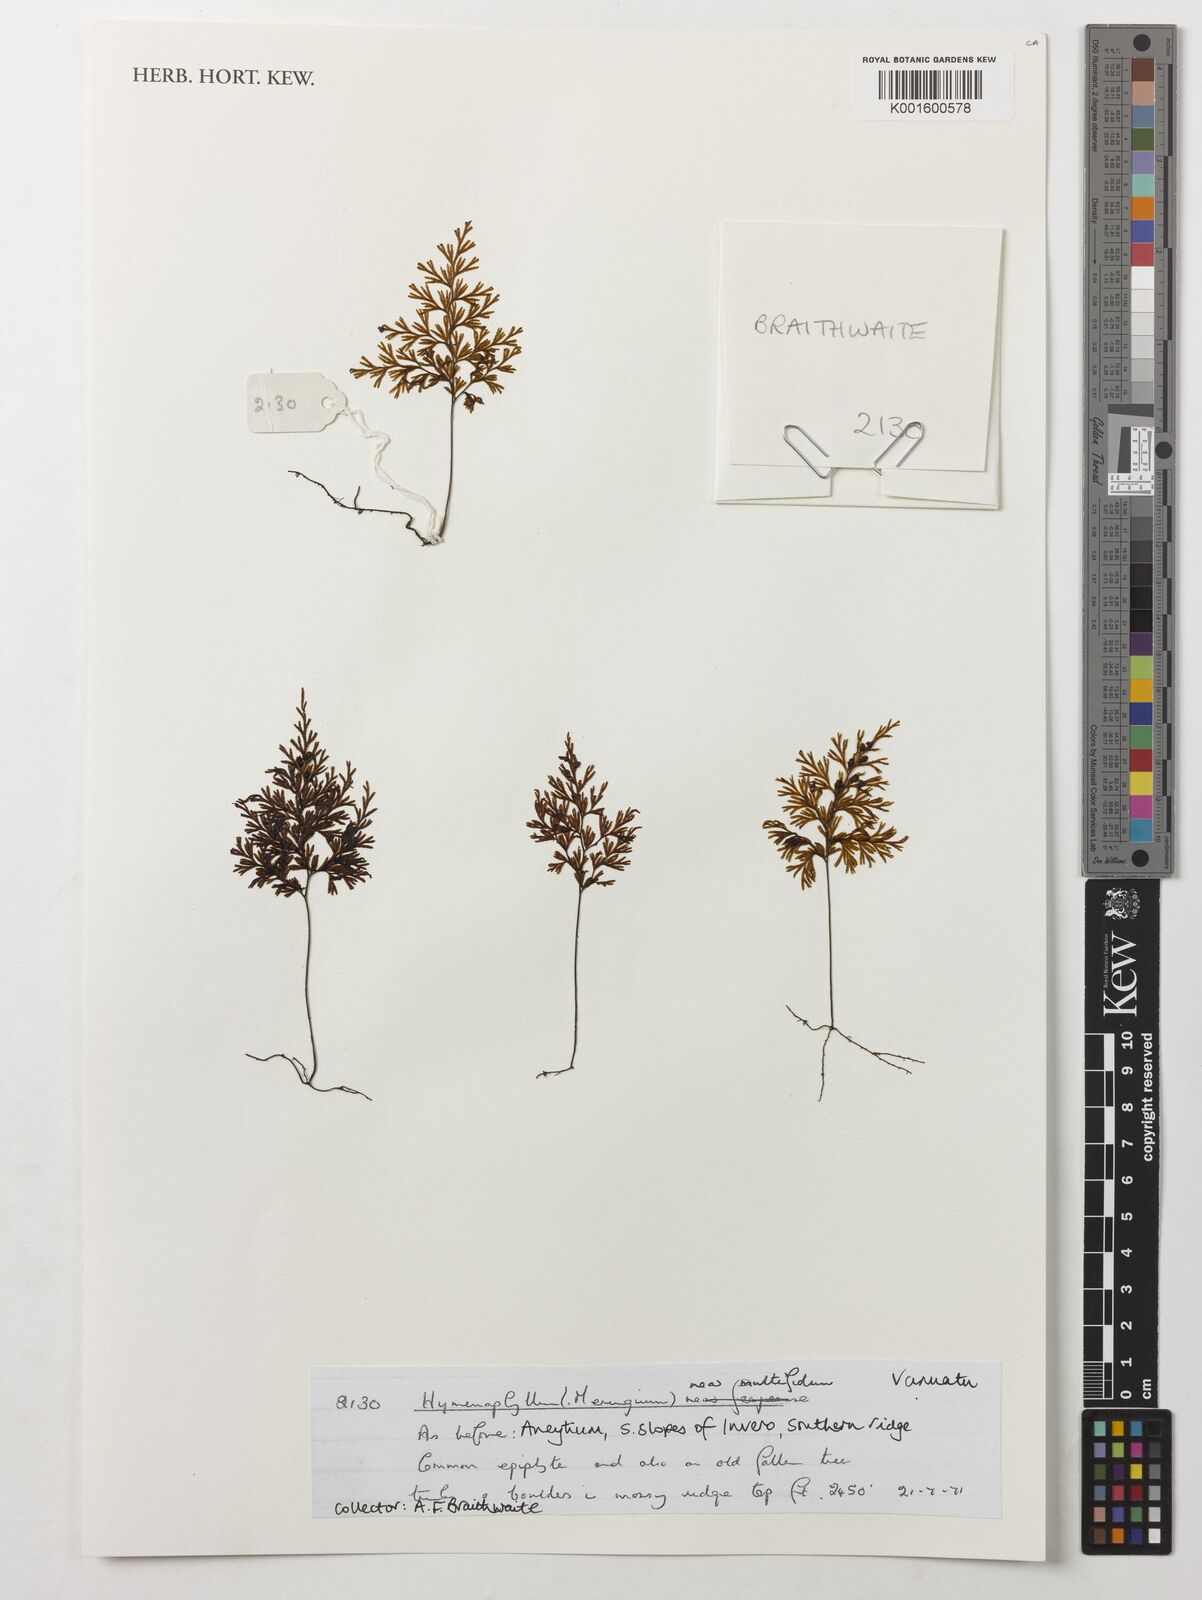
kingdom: Plantae
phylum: Tracheophyta
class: Polypodiopsida
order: Hymenophyllales
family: Hymenophyllaceae
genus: Hymenophyllum
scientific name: Hymenophyllum multifidum
